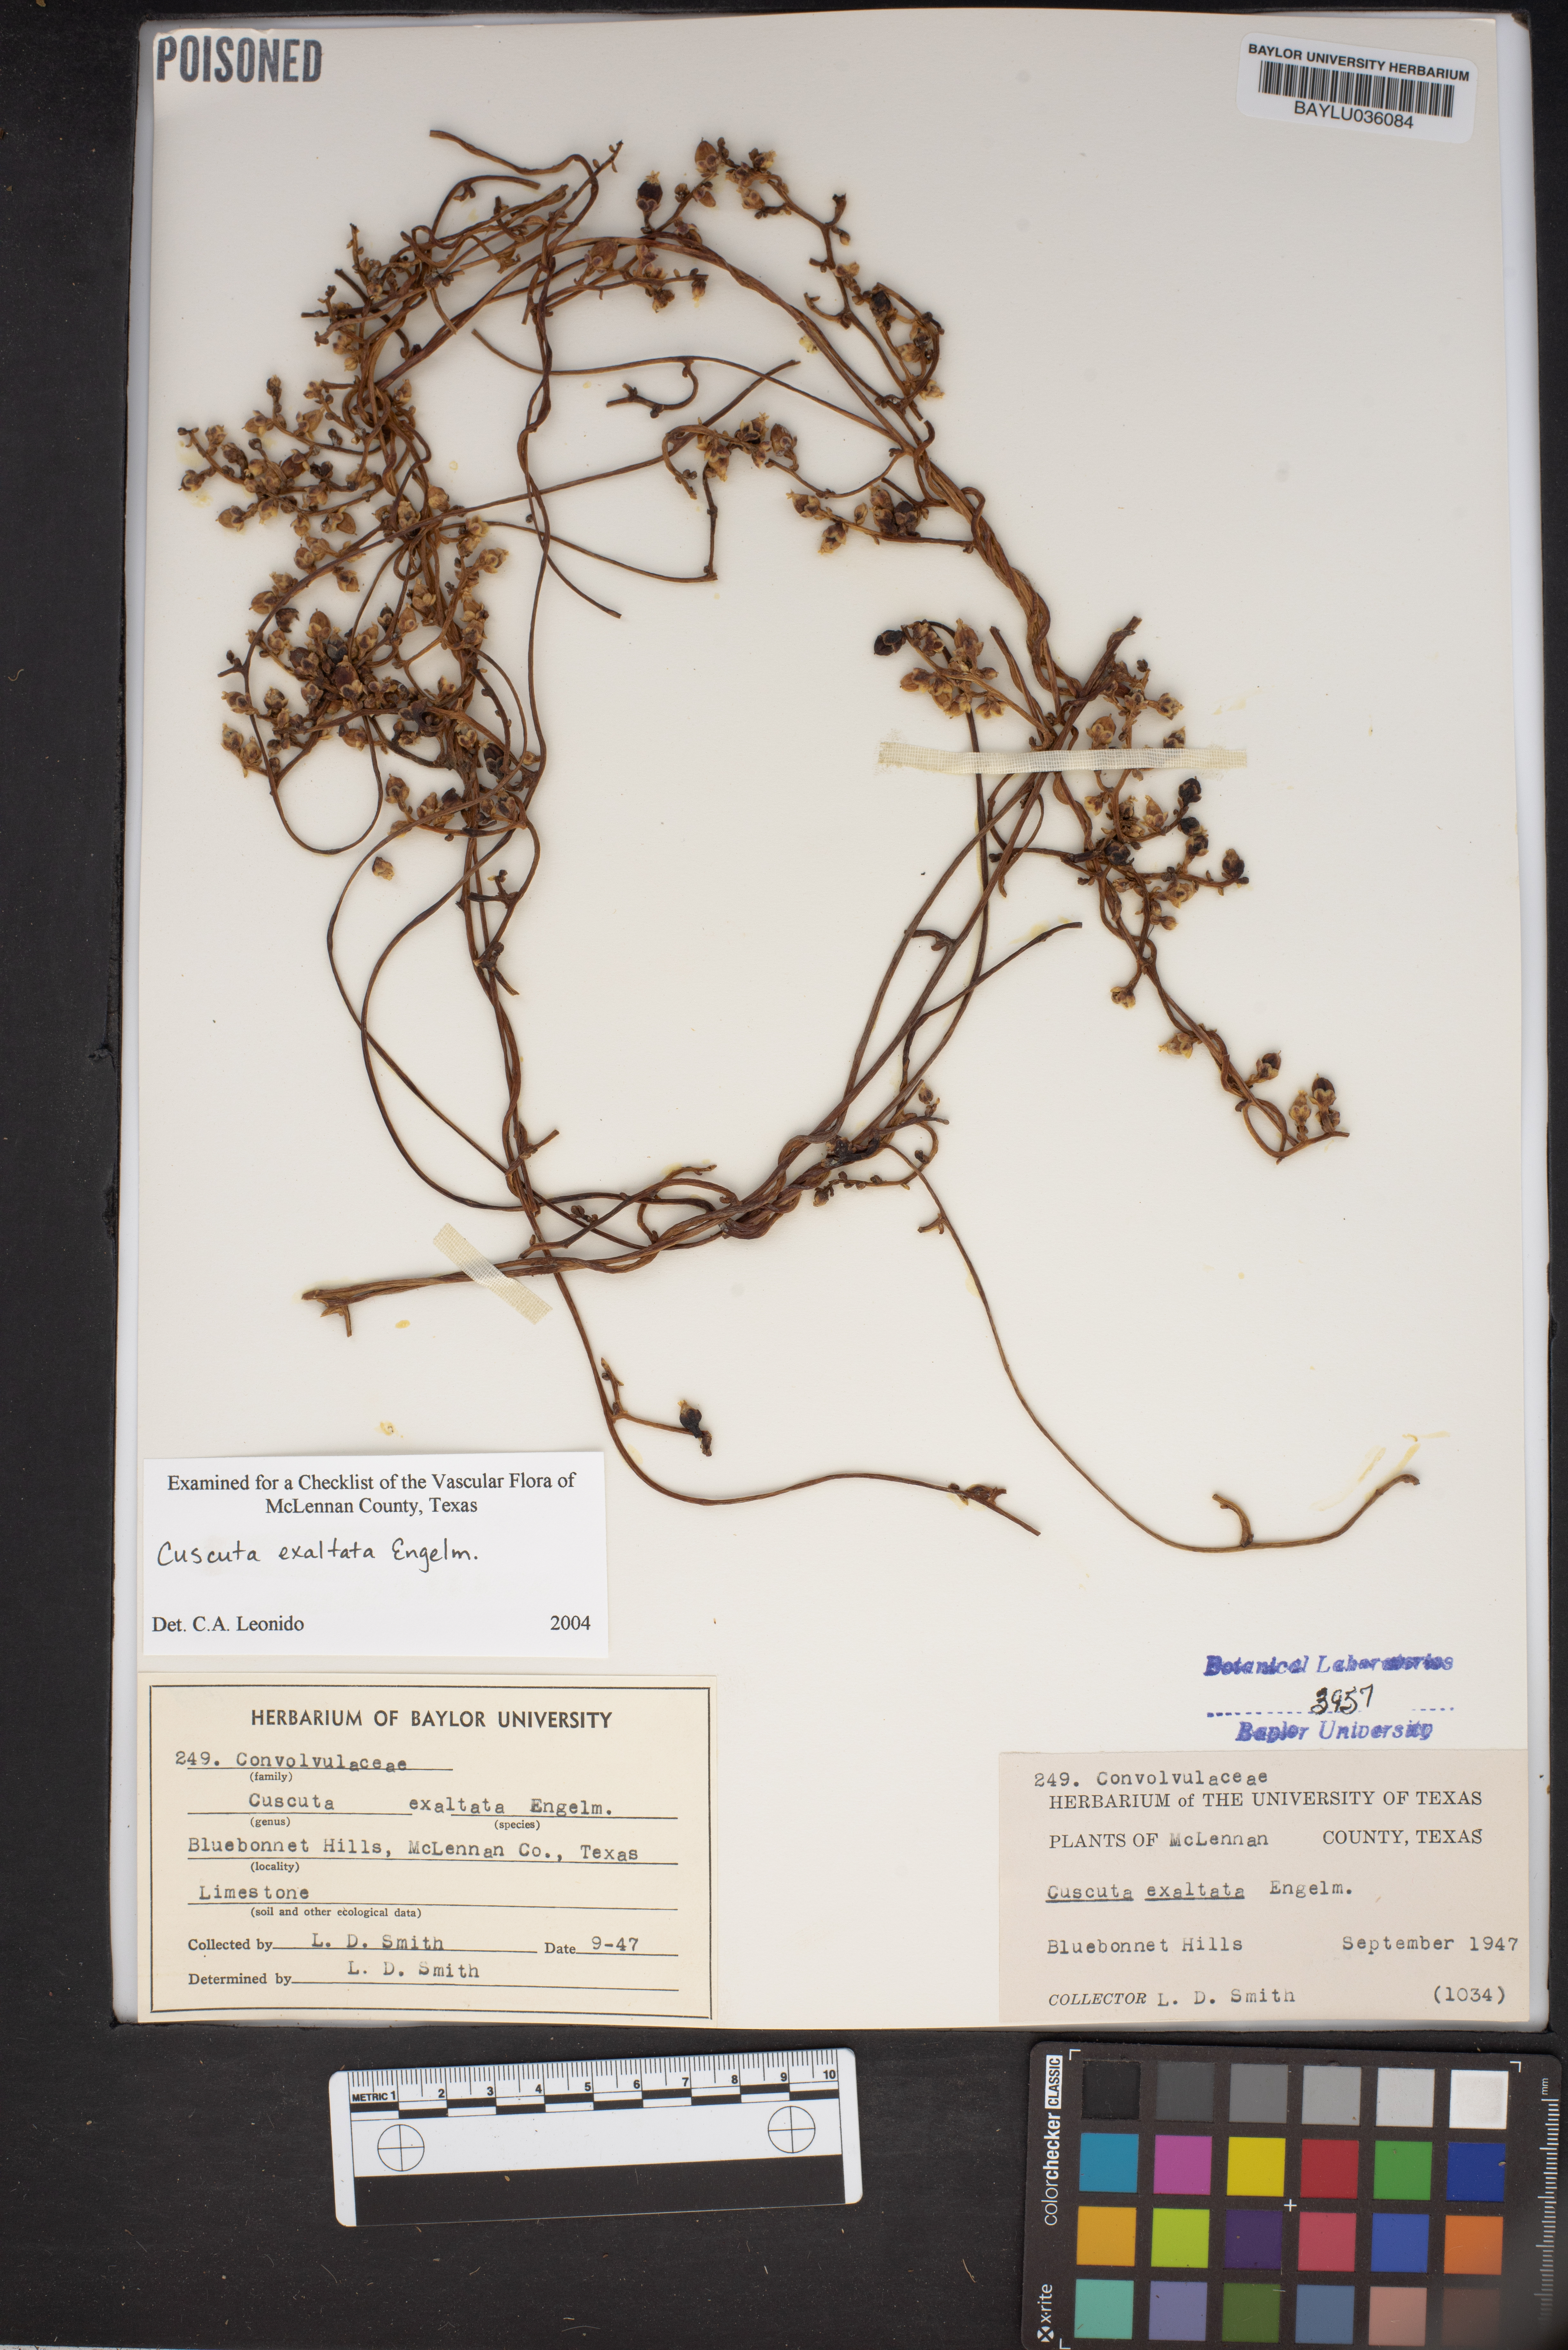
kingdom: Plantae
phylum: Tracheophyta
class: Magnoliopsida
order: Solanales
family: Convolvulaceae
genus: Cuscuta
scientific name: Cuscuta exaltata
